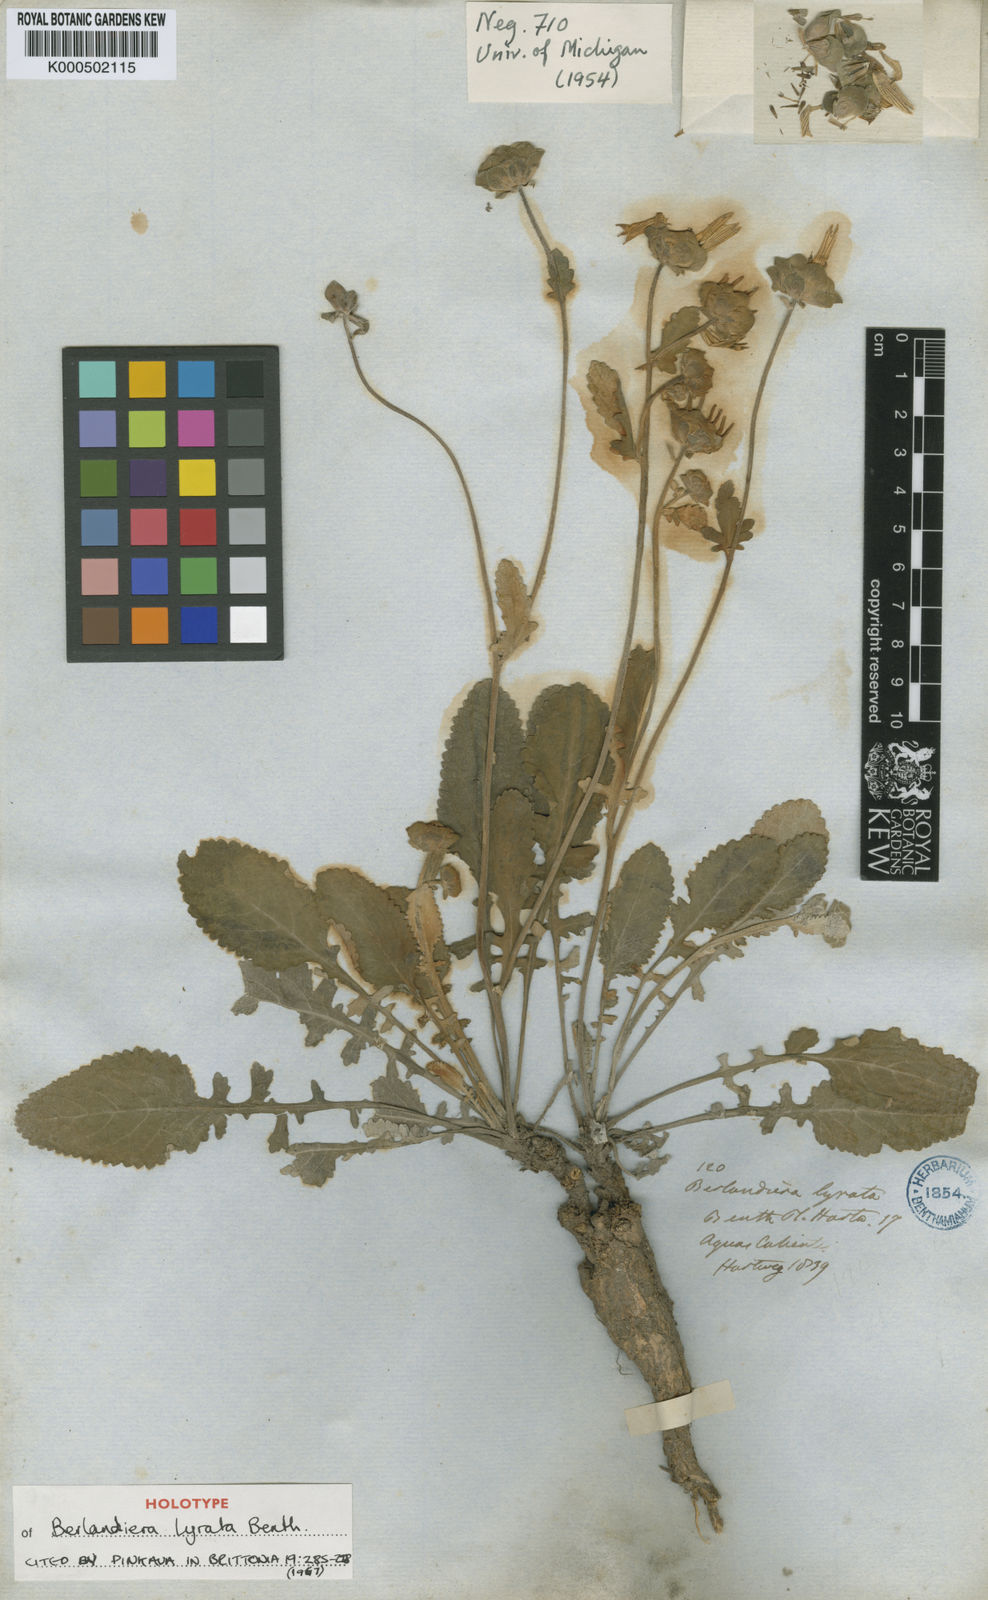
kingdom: Plantae
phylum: Tracheophyta
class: Magnoliopsida
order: Asterales
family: Asteraceae
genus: Berlandiera
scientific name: Berlandiera lyrata
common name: Chocolate-flower
